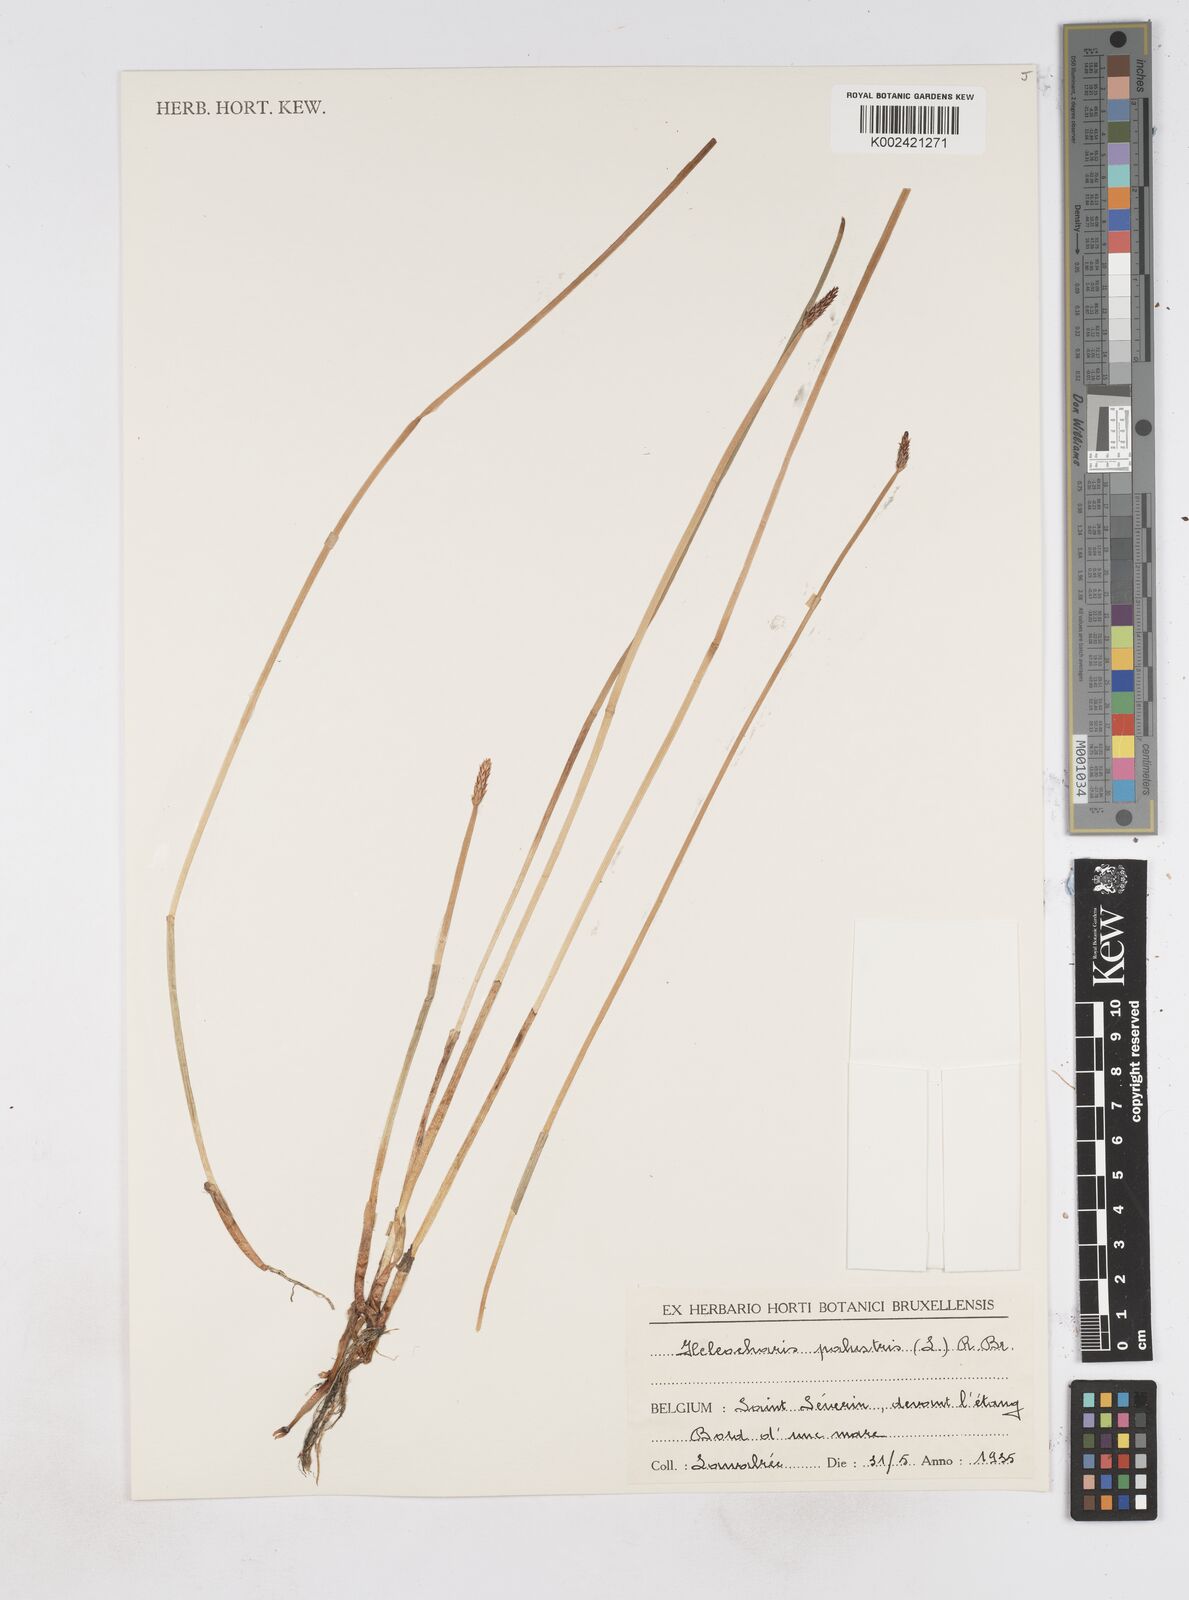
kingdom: Plantae
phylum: Tracheophyta
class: Liliopsida
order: Poales
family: Cyperaceae
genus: Eleocharis
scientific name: Eleocharis palustris
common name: Common spike-rush
